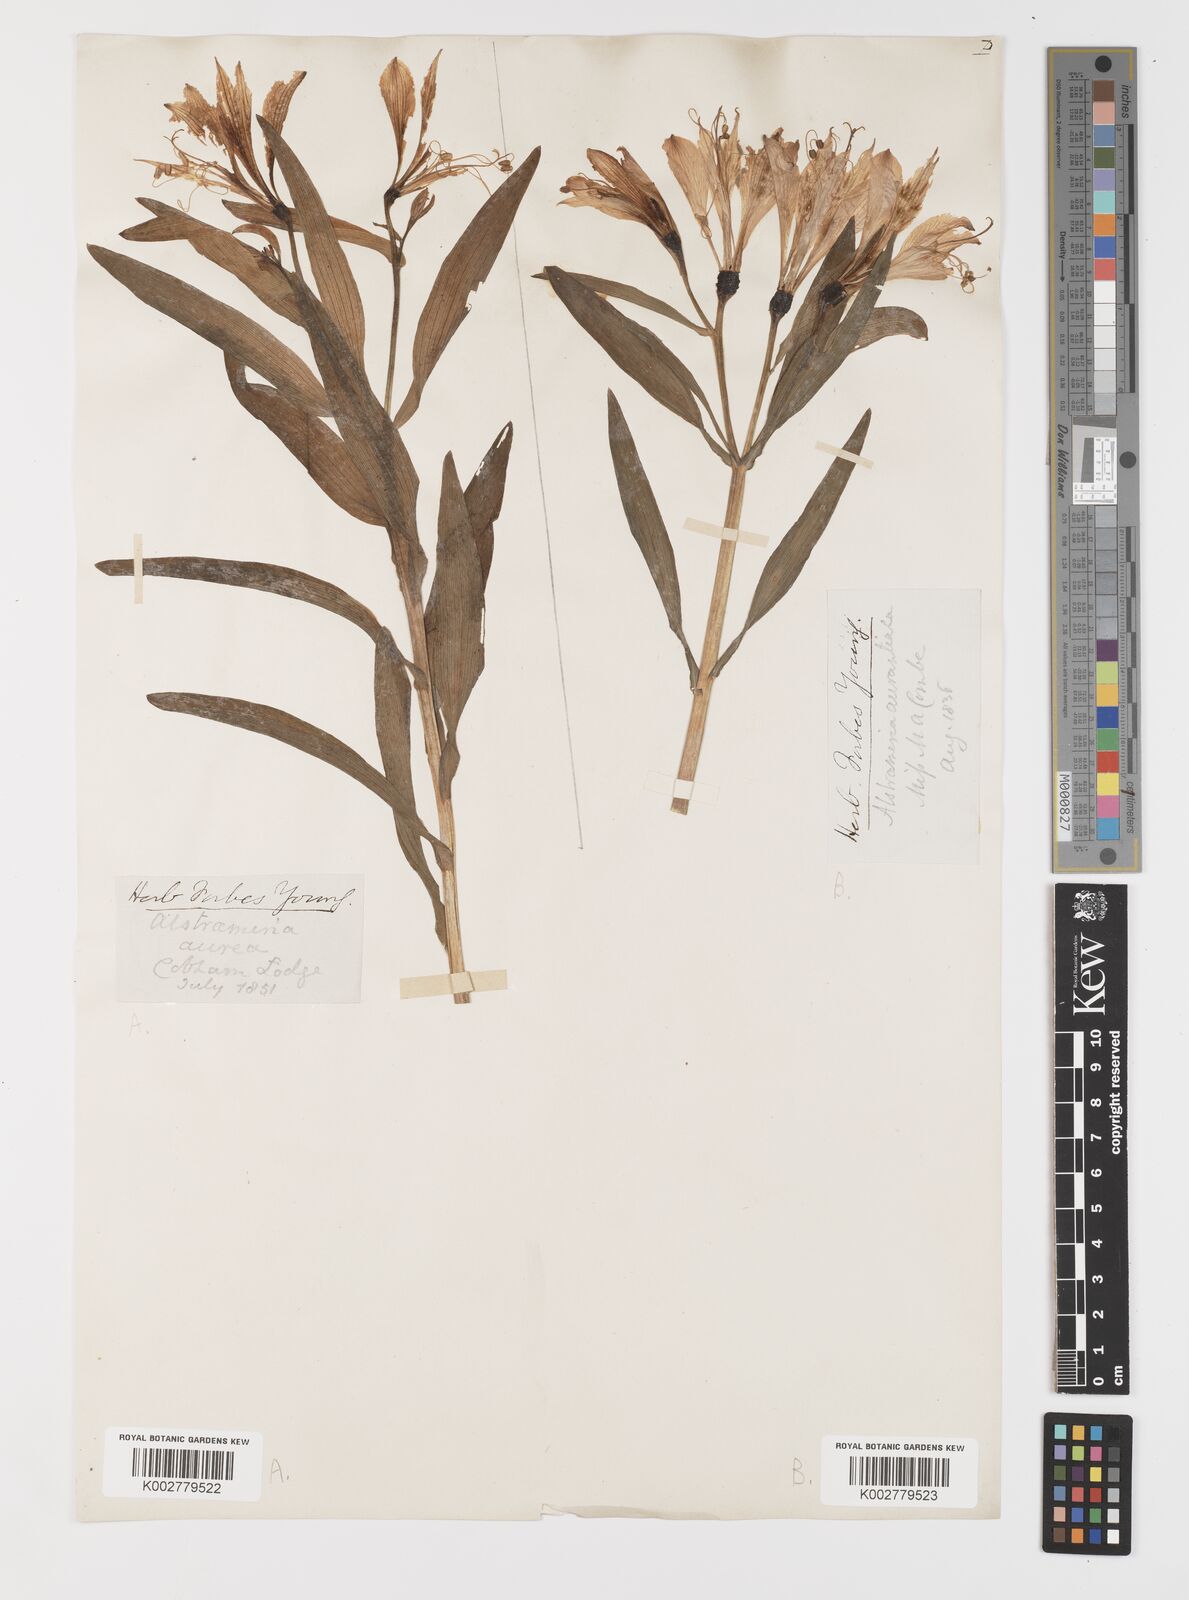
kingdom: Plantae
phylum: Tracheophyta
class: Liliopsida
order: Liliales
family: Alstroemeriaceae
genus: Alstroemeria
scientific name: Alstroemeria aurea
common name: Peruvian lily
